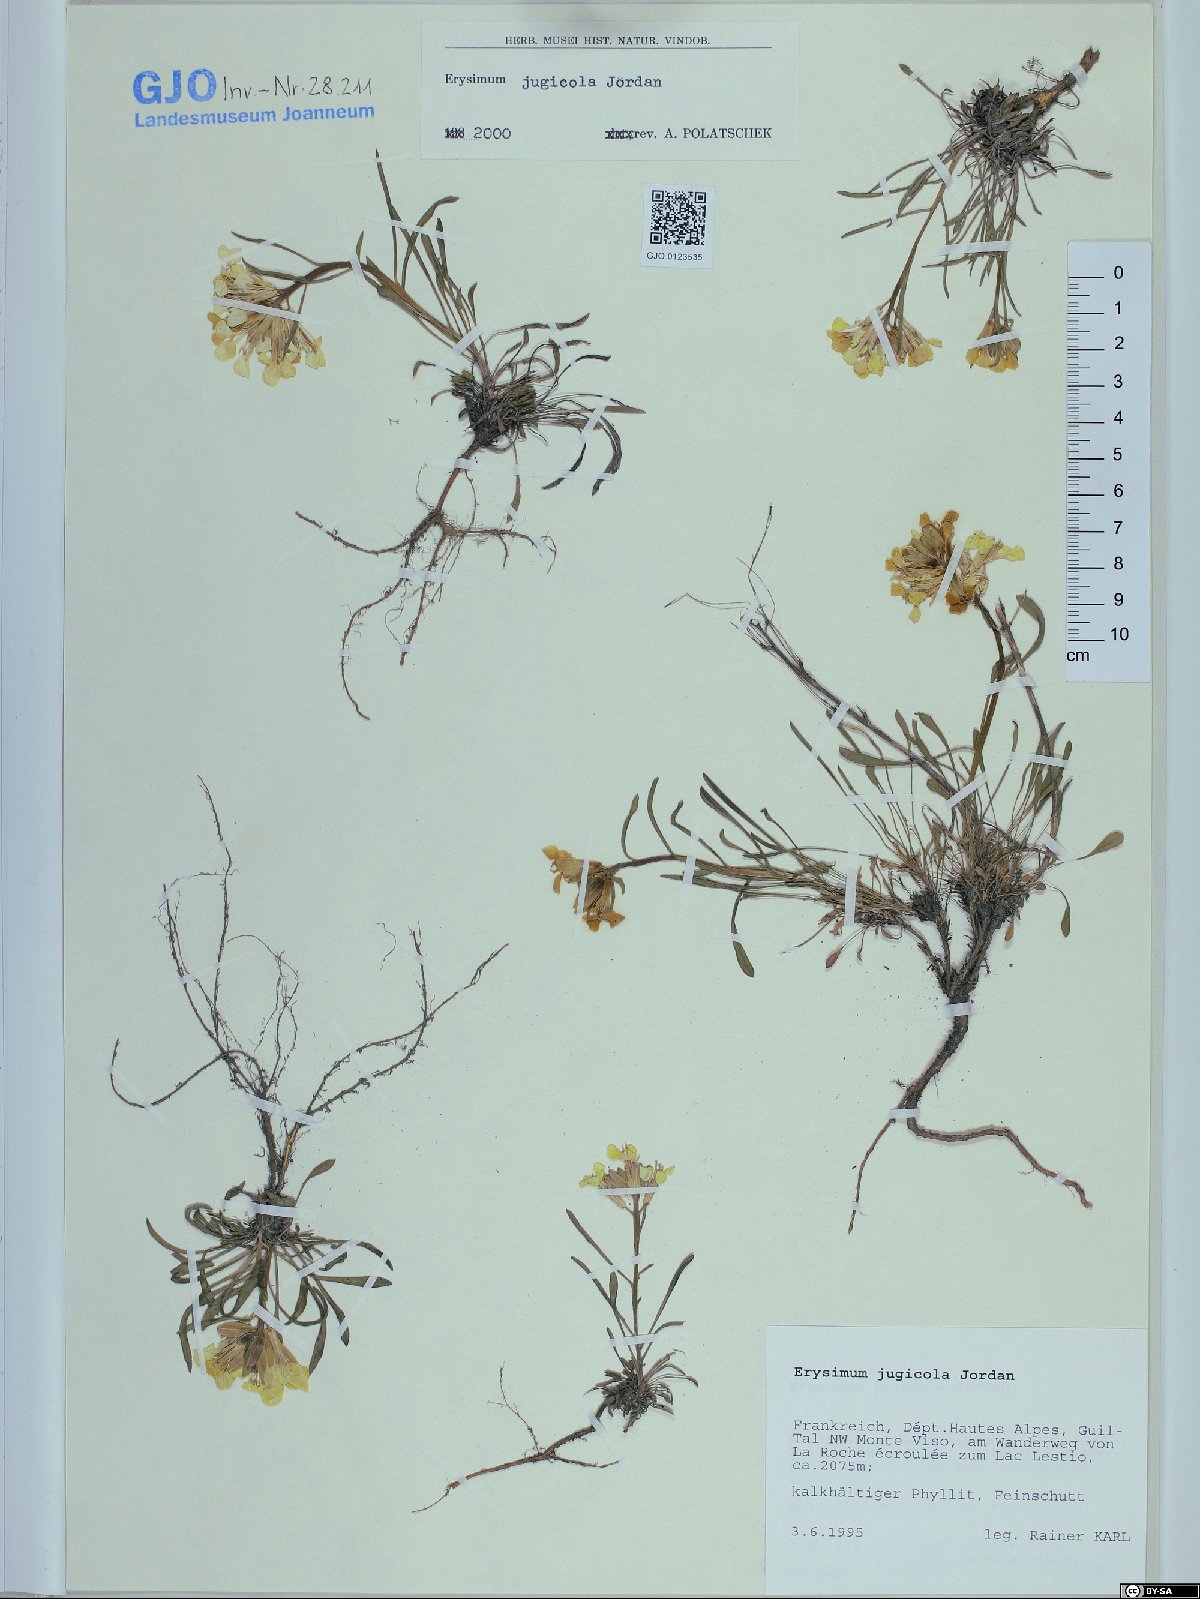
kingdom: Plantae
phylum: Tracheophyta
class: Magnoliopsida
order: Brassicales
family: Brassicaceae
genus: Erysimum
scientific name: Erysimum jugicolum
